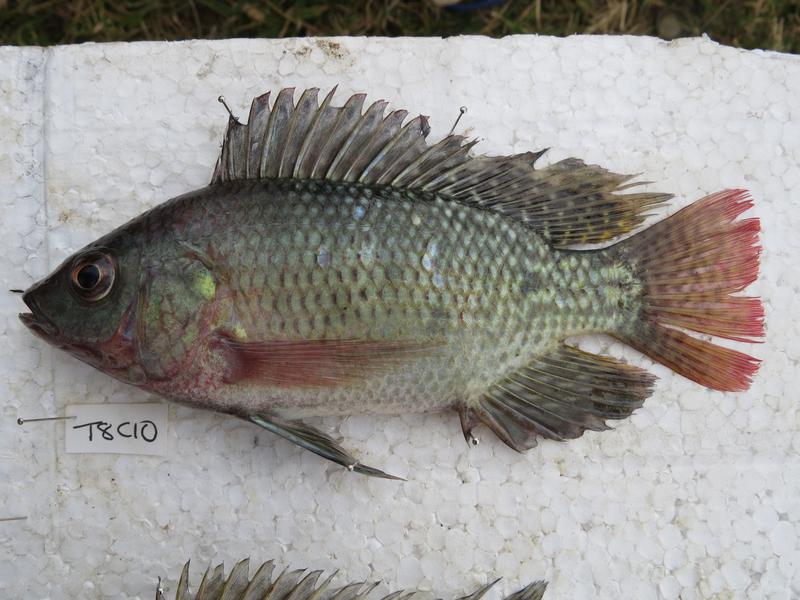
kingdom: Animalia
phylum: Chordata
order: Perciformes
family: Cichlidae
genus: Oreochromis
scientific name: Oreochromis niloticus
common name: Nile tilapia
